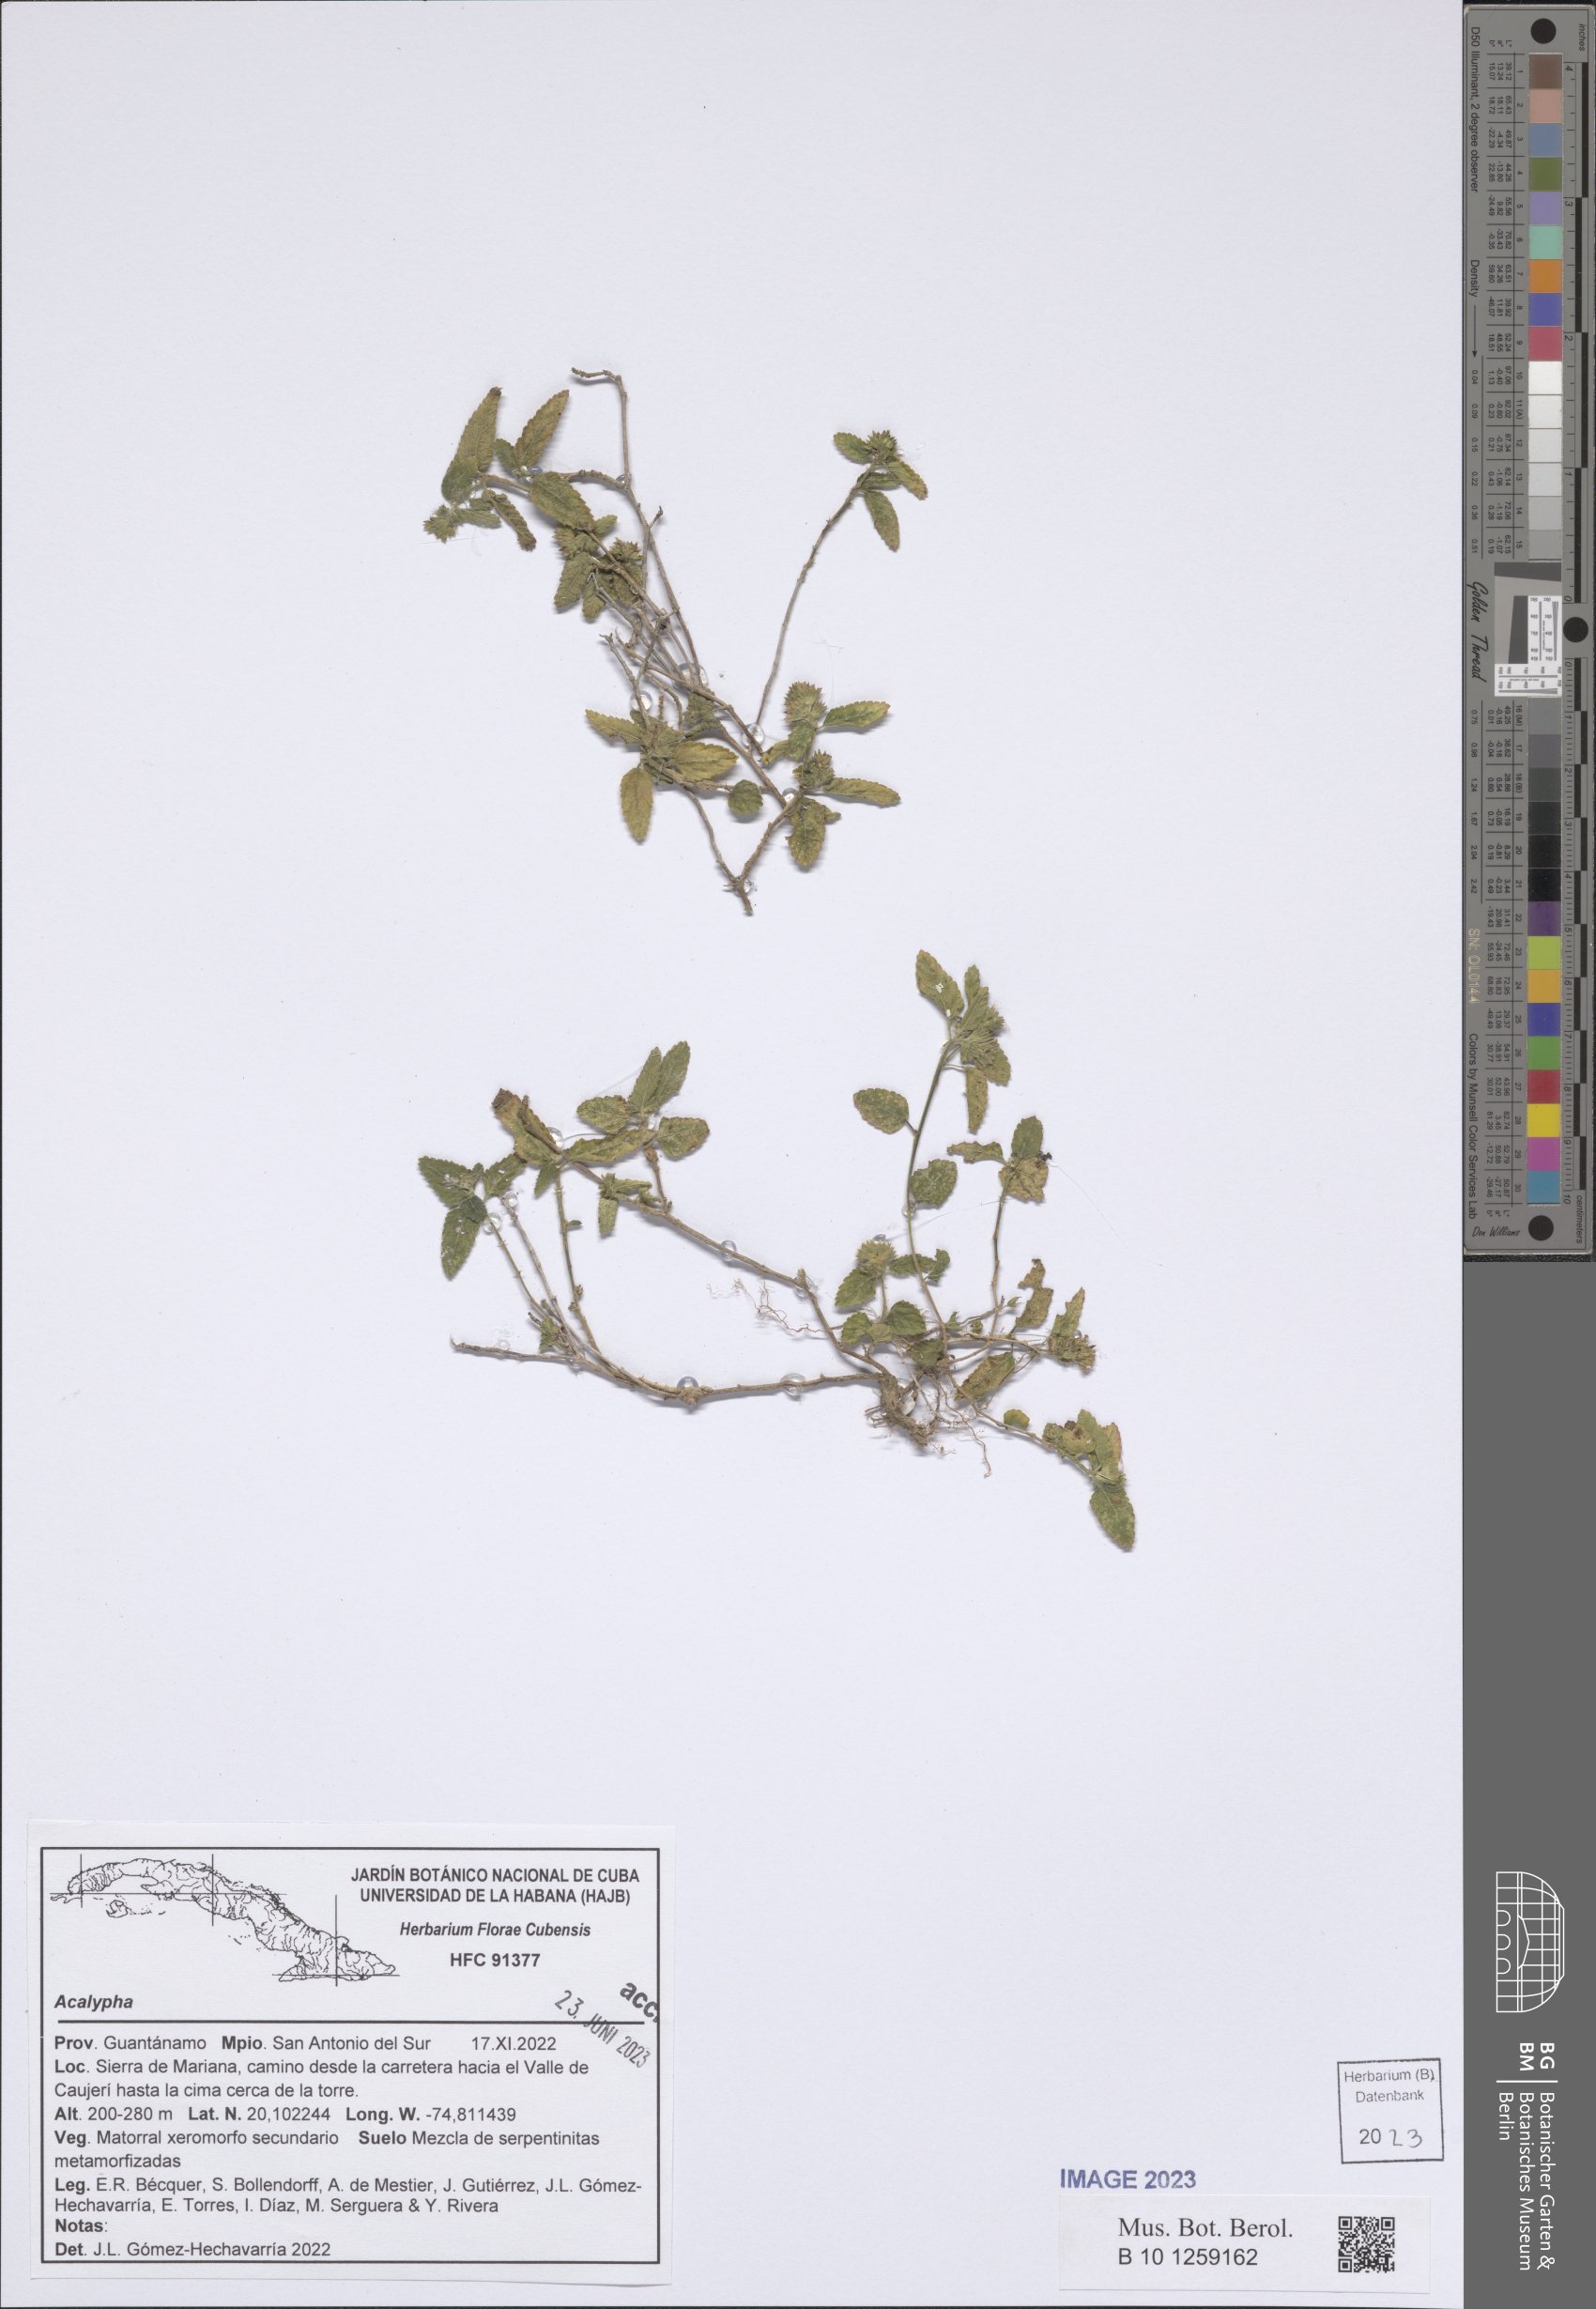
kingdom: Plantae
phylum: Tracheophyta
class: Magnoliopsida
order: Malpighiales
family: Euphorbiaceae
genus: Acalypha
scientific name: Acalypha
